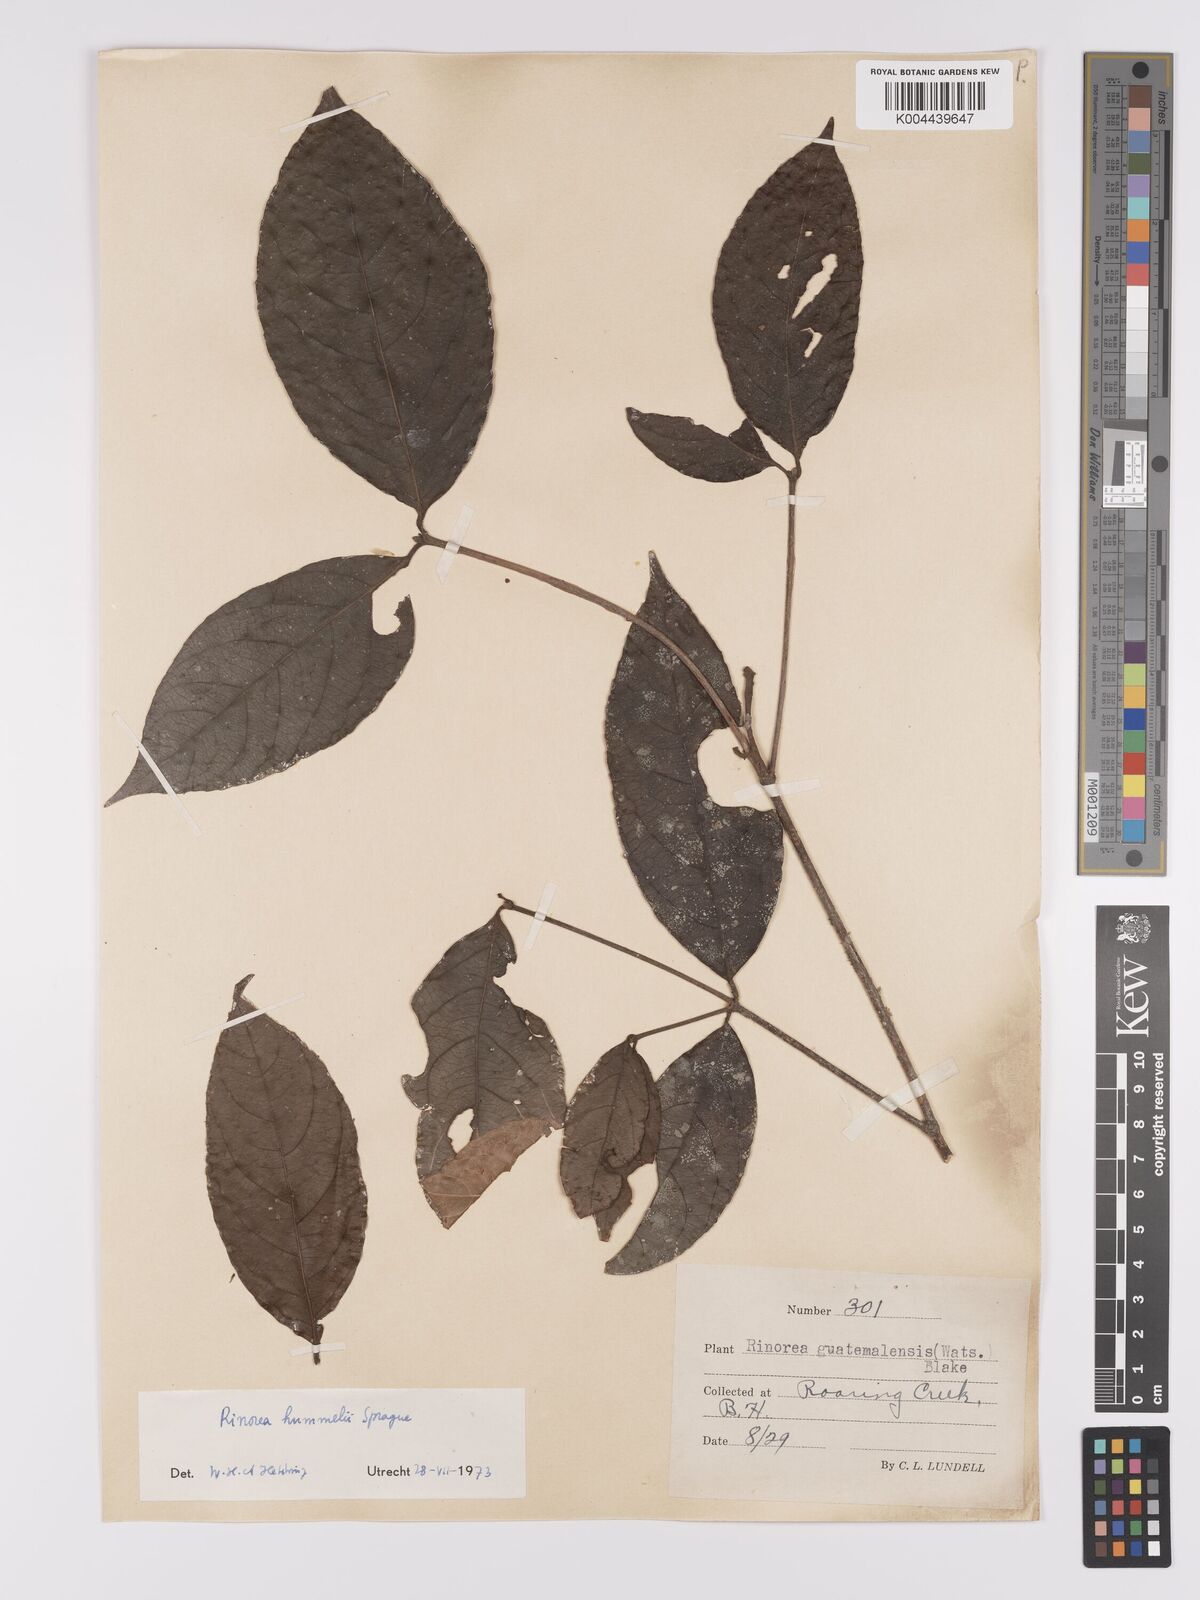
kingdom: Plantae
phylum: Tracheophyta
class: Magnoliopsida
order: Malpighiales
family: Violaceae
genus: Rinorea
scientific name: Rinorea hummelii
